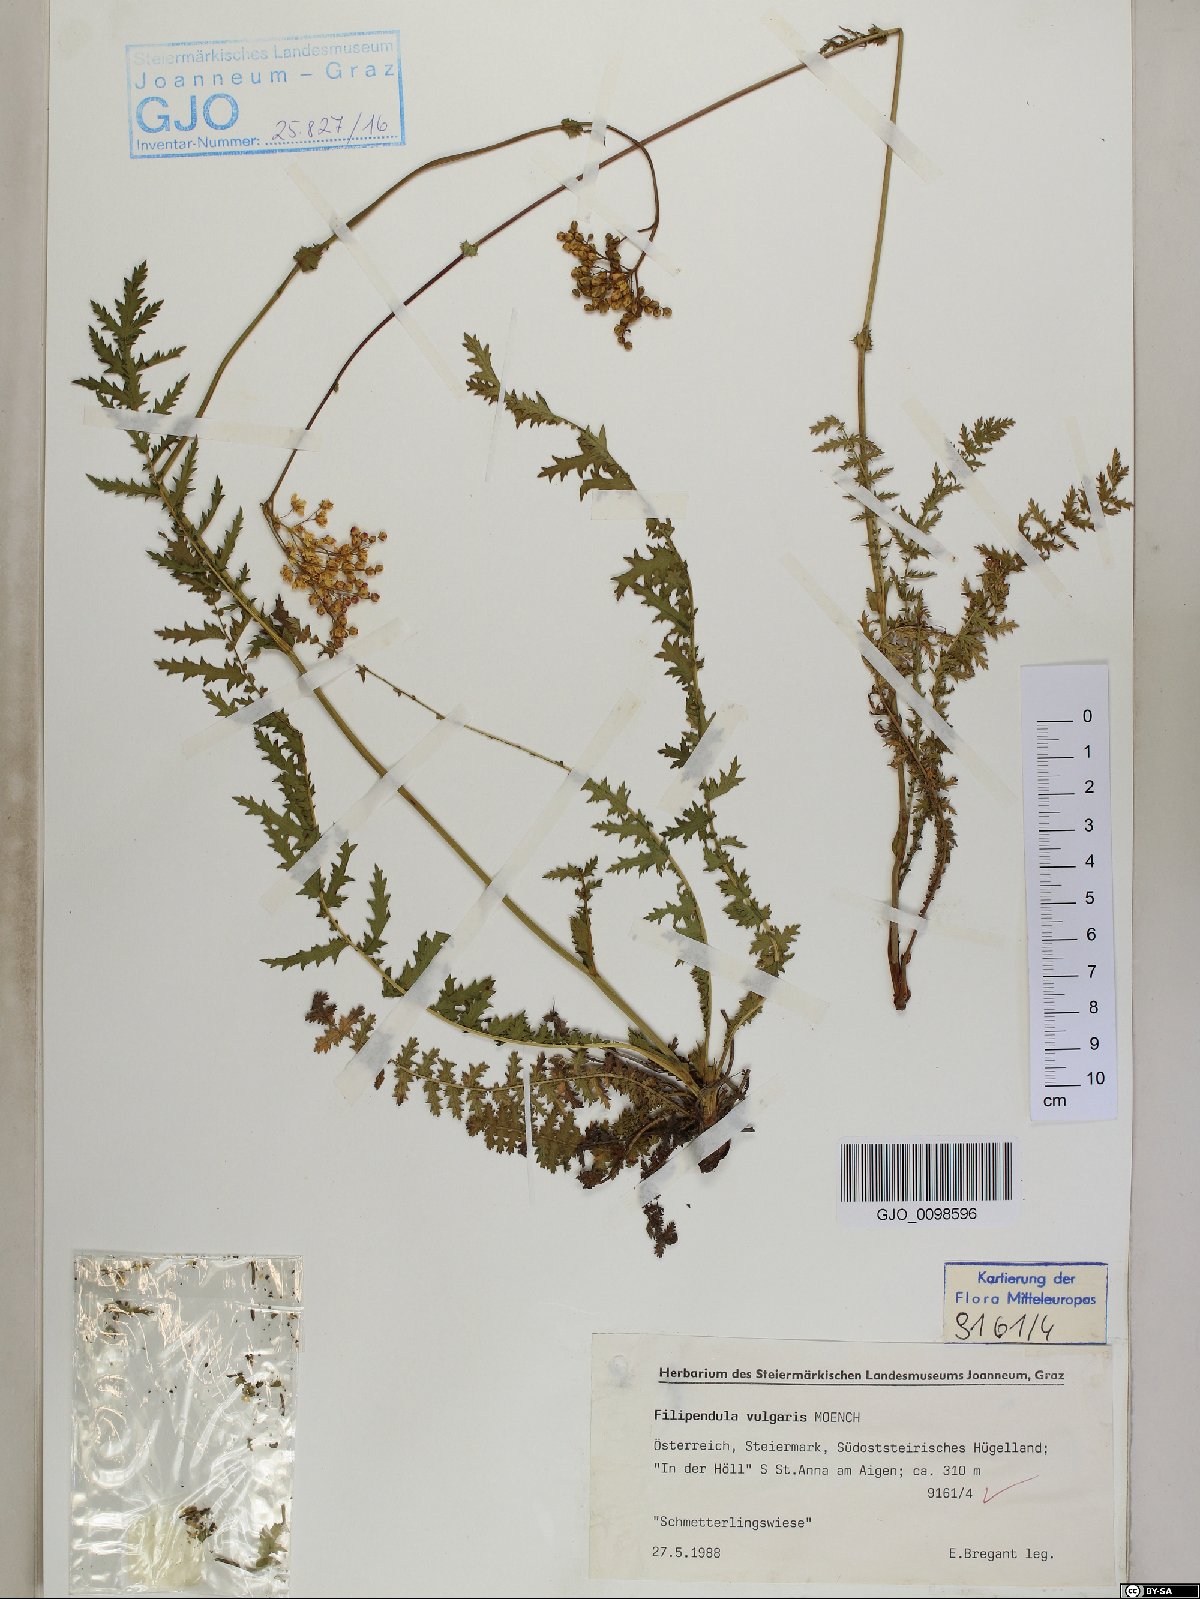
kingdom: Plantae
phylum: Tracheophyta
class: Magnoliopsida
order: Rosales
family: Rosaceae
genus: Filipendula
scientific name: Filipendula vulgaris
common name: Dropwort
